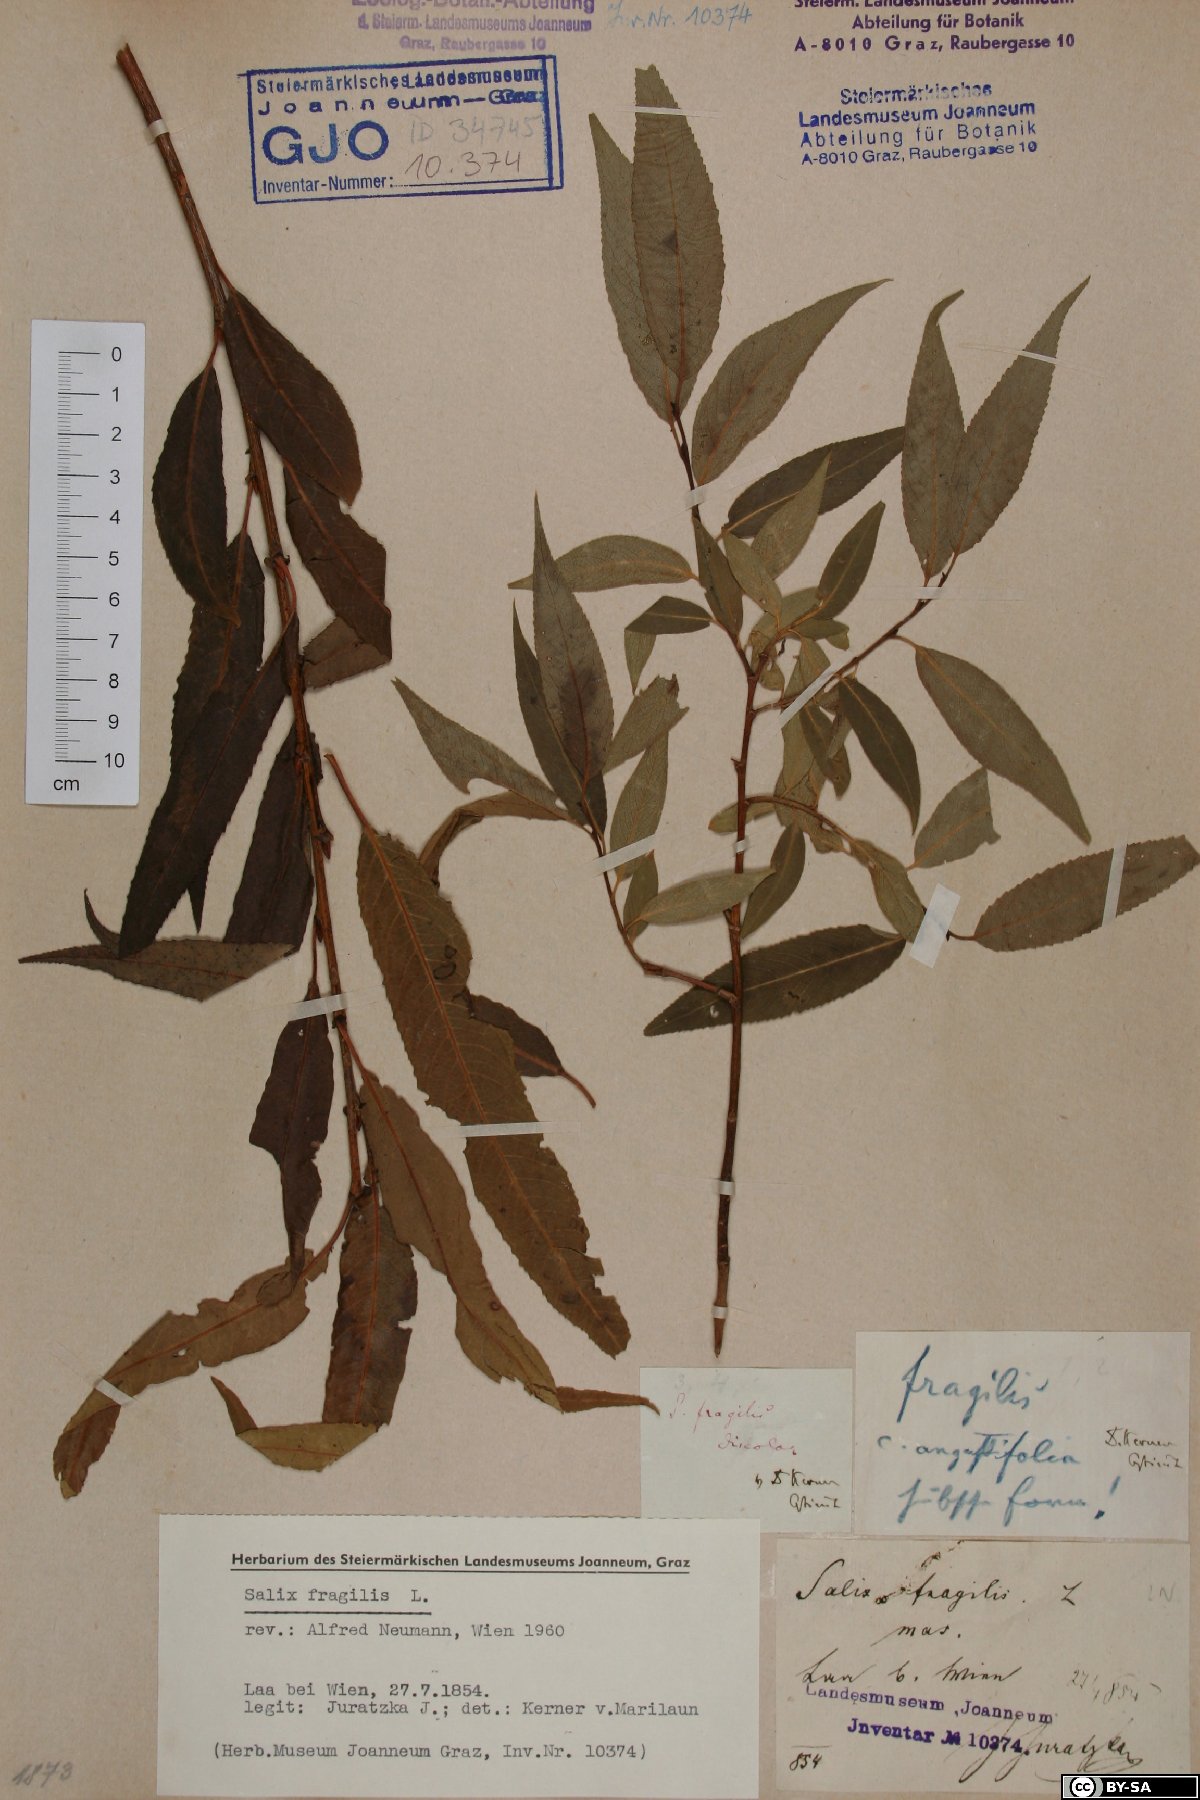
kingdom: Plantae
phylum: Tracheophyta
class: Magnoliopsida
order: Malpighiales
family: Salicaceae
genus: Salix
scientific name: Salix fragilis
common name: Crack willow
